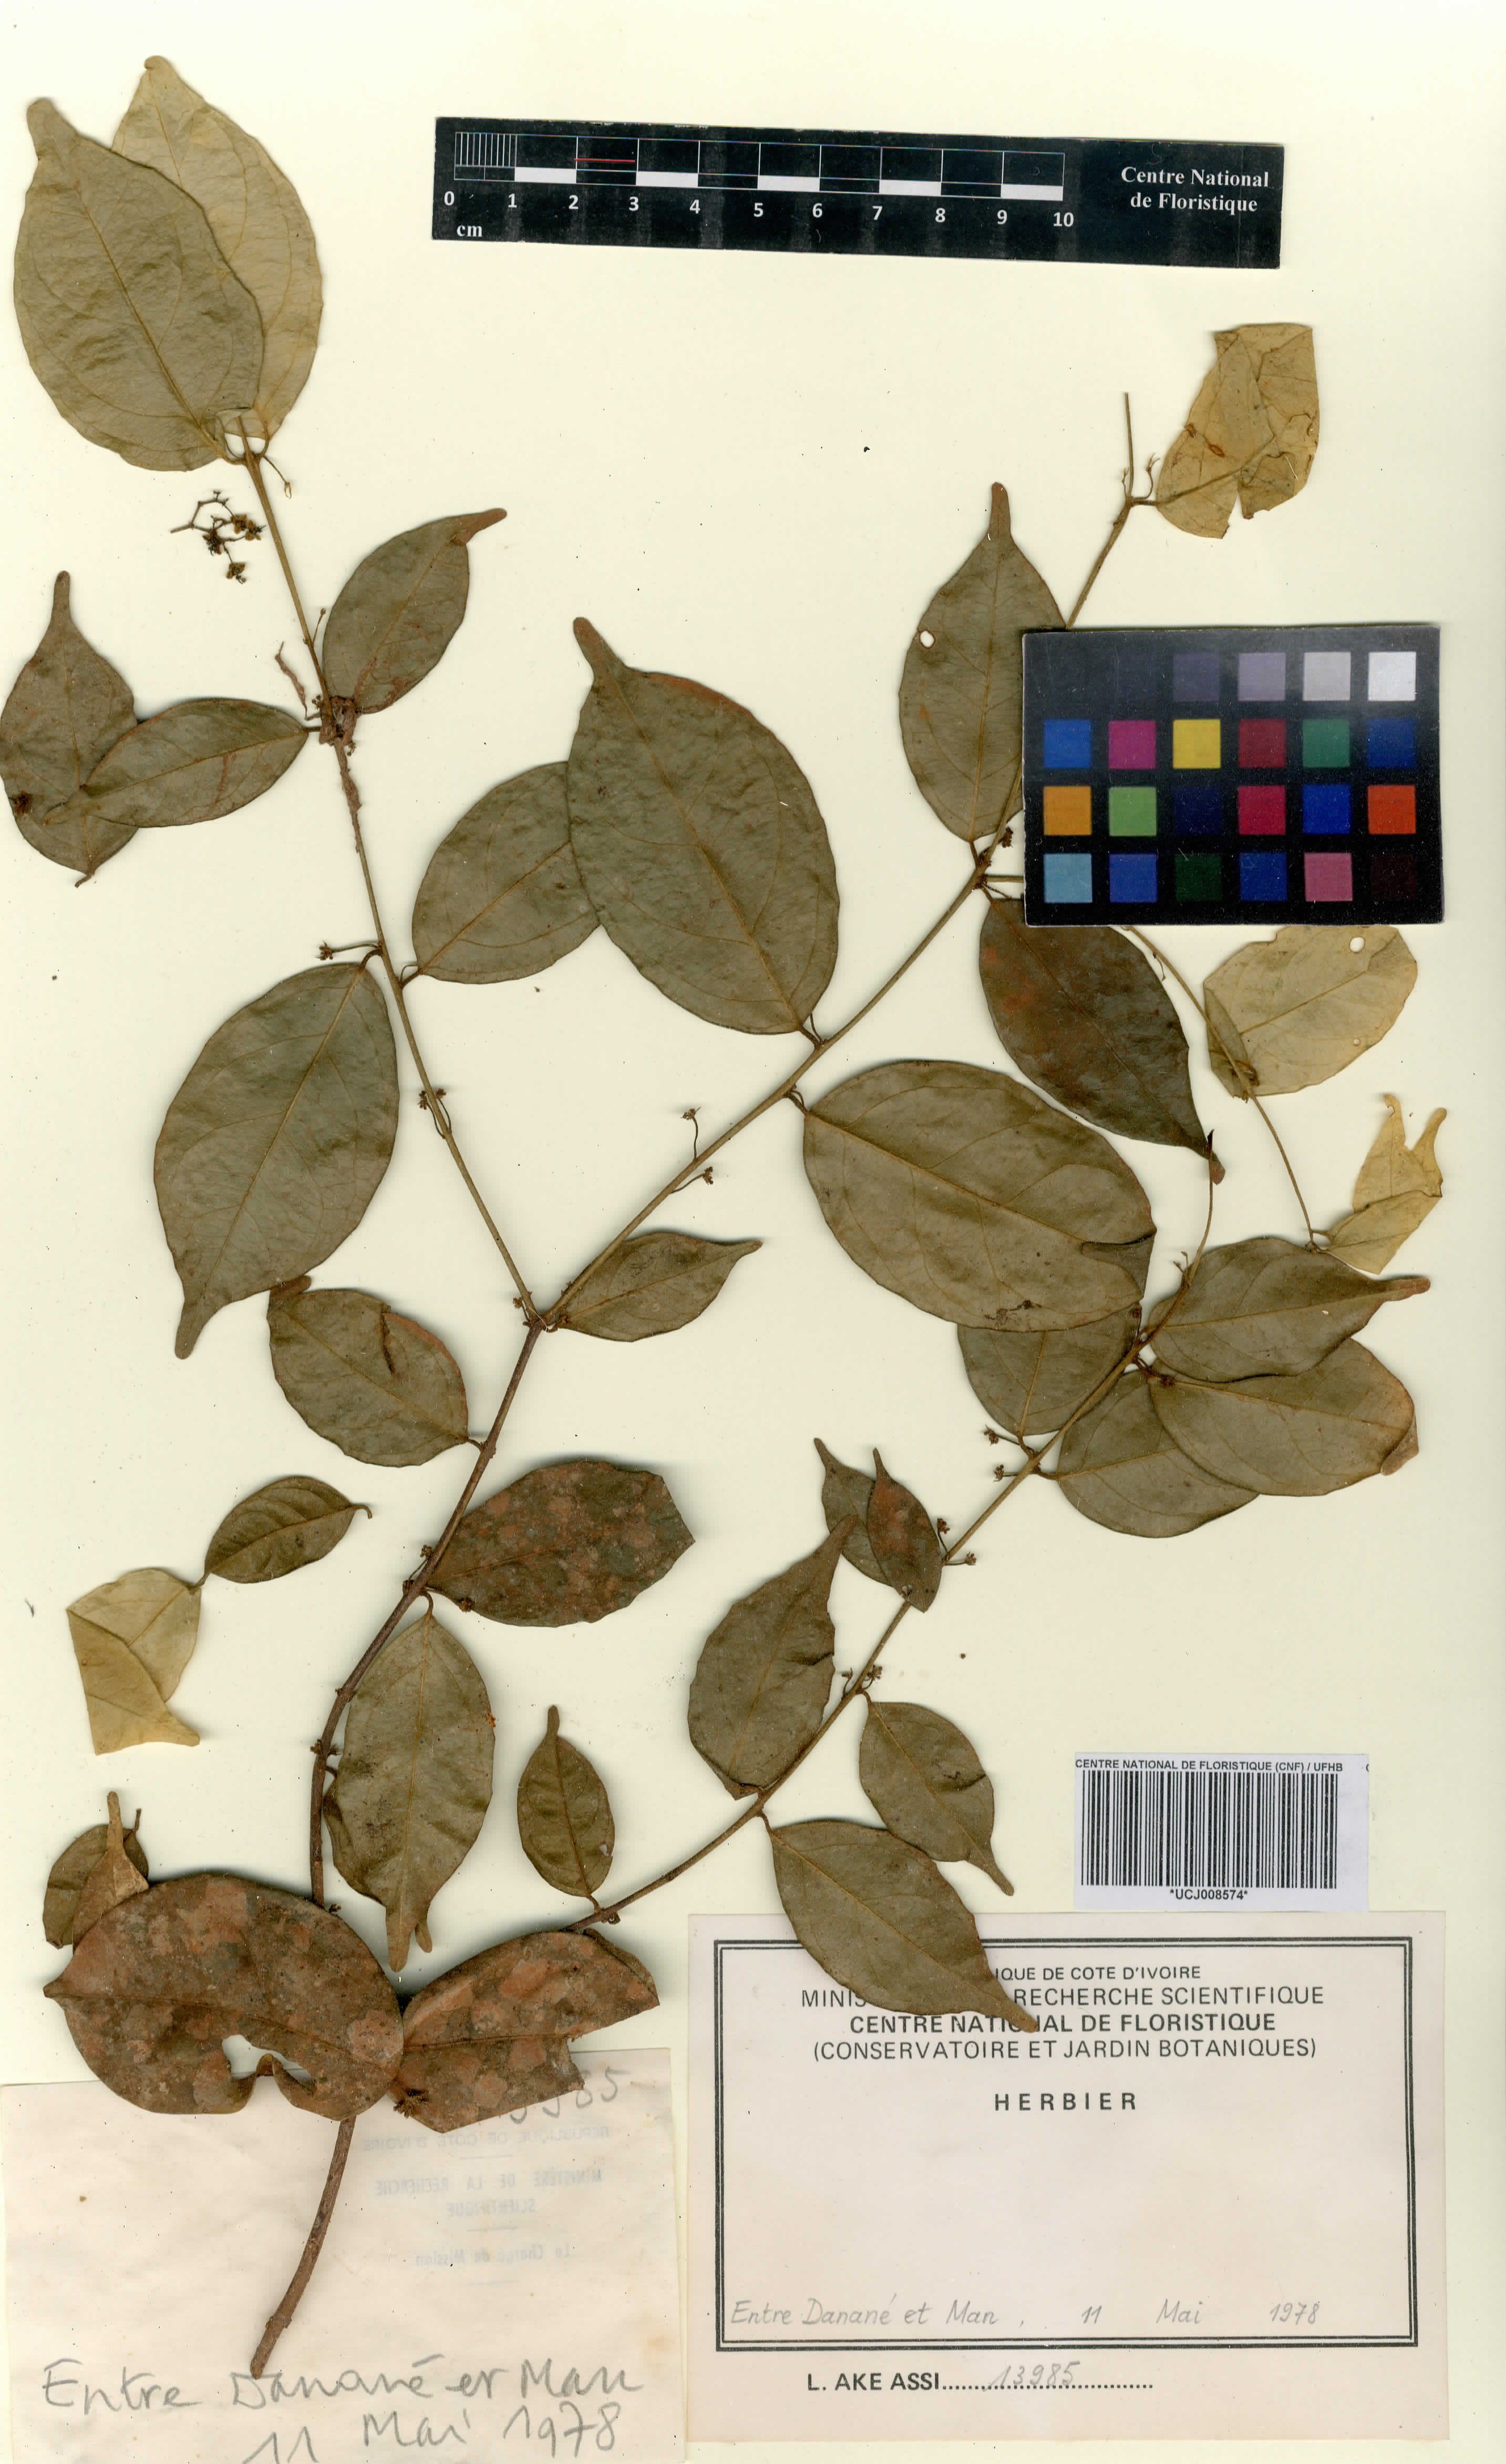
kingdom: Plantae
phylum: Tracheophyta
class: Magnoliopsida
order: Celastrales
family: Celastraceae
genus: Salacia
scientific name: Salacia caillei
